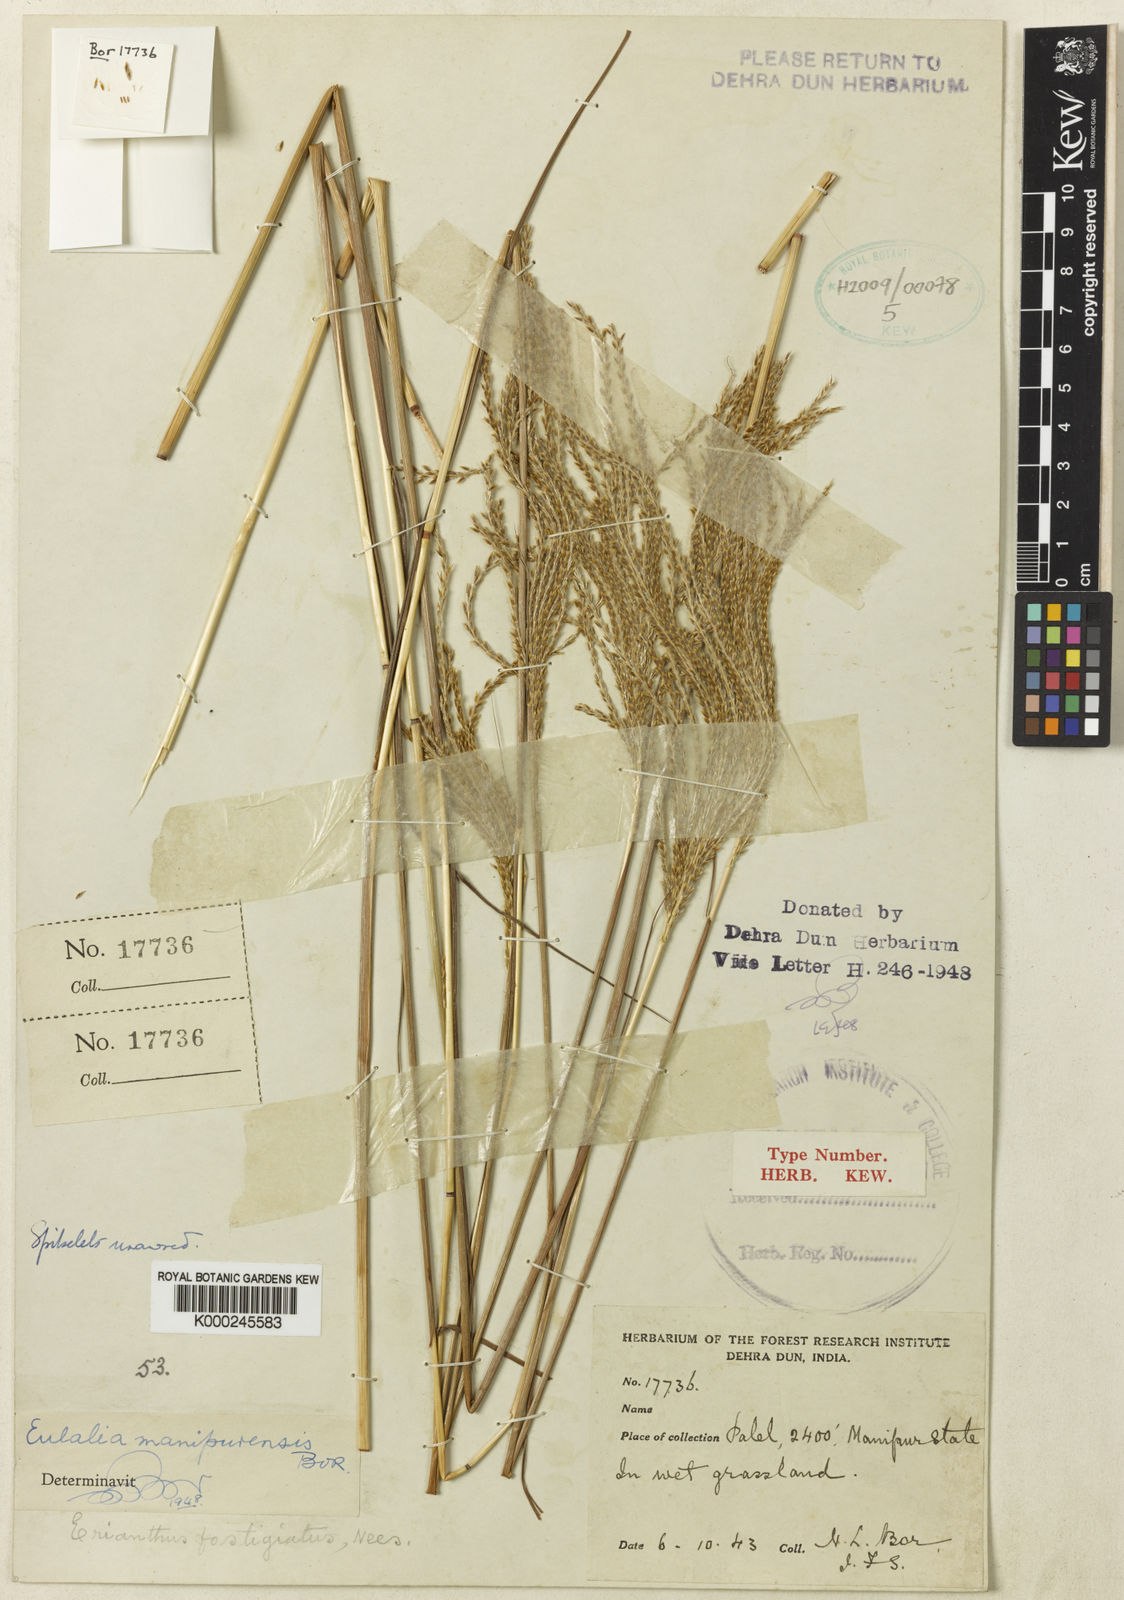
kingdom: Plantae
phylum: Tracheophyta
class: Liliopsida
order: Poales
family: Poaceae
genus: Eulalia
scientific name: Eulalia manipurensis
